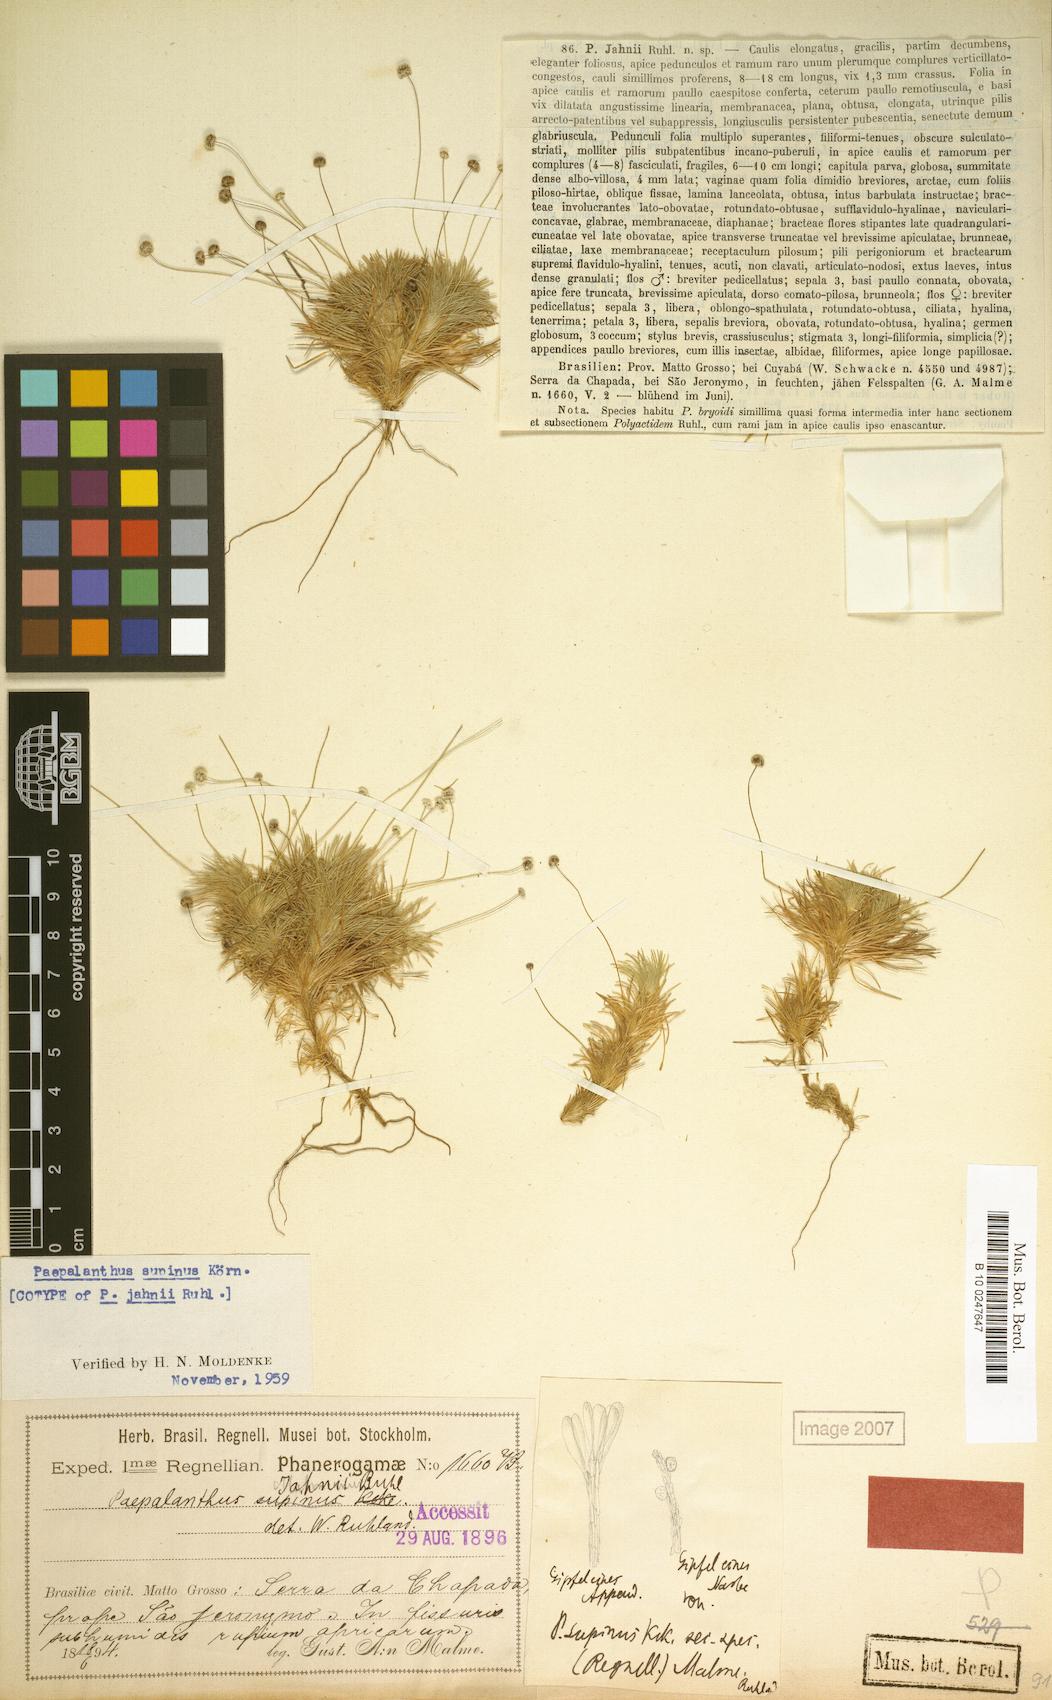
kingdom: Plantae
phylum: Tracheophyta
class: Liliopsida
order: Poales
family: Eriocaulaceae
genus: Paepalanthus
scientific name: Paepalanthus supinus
